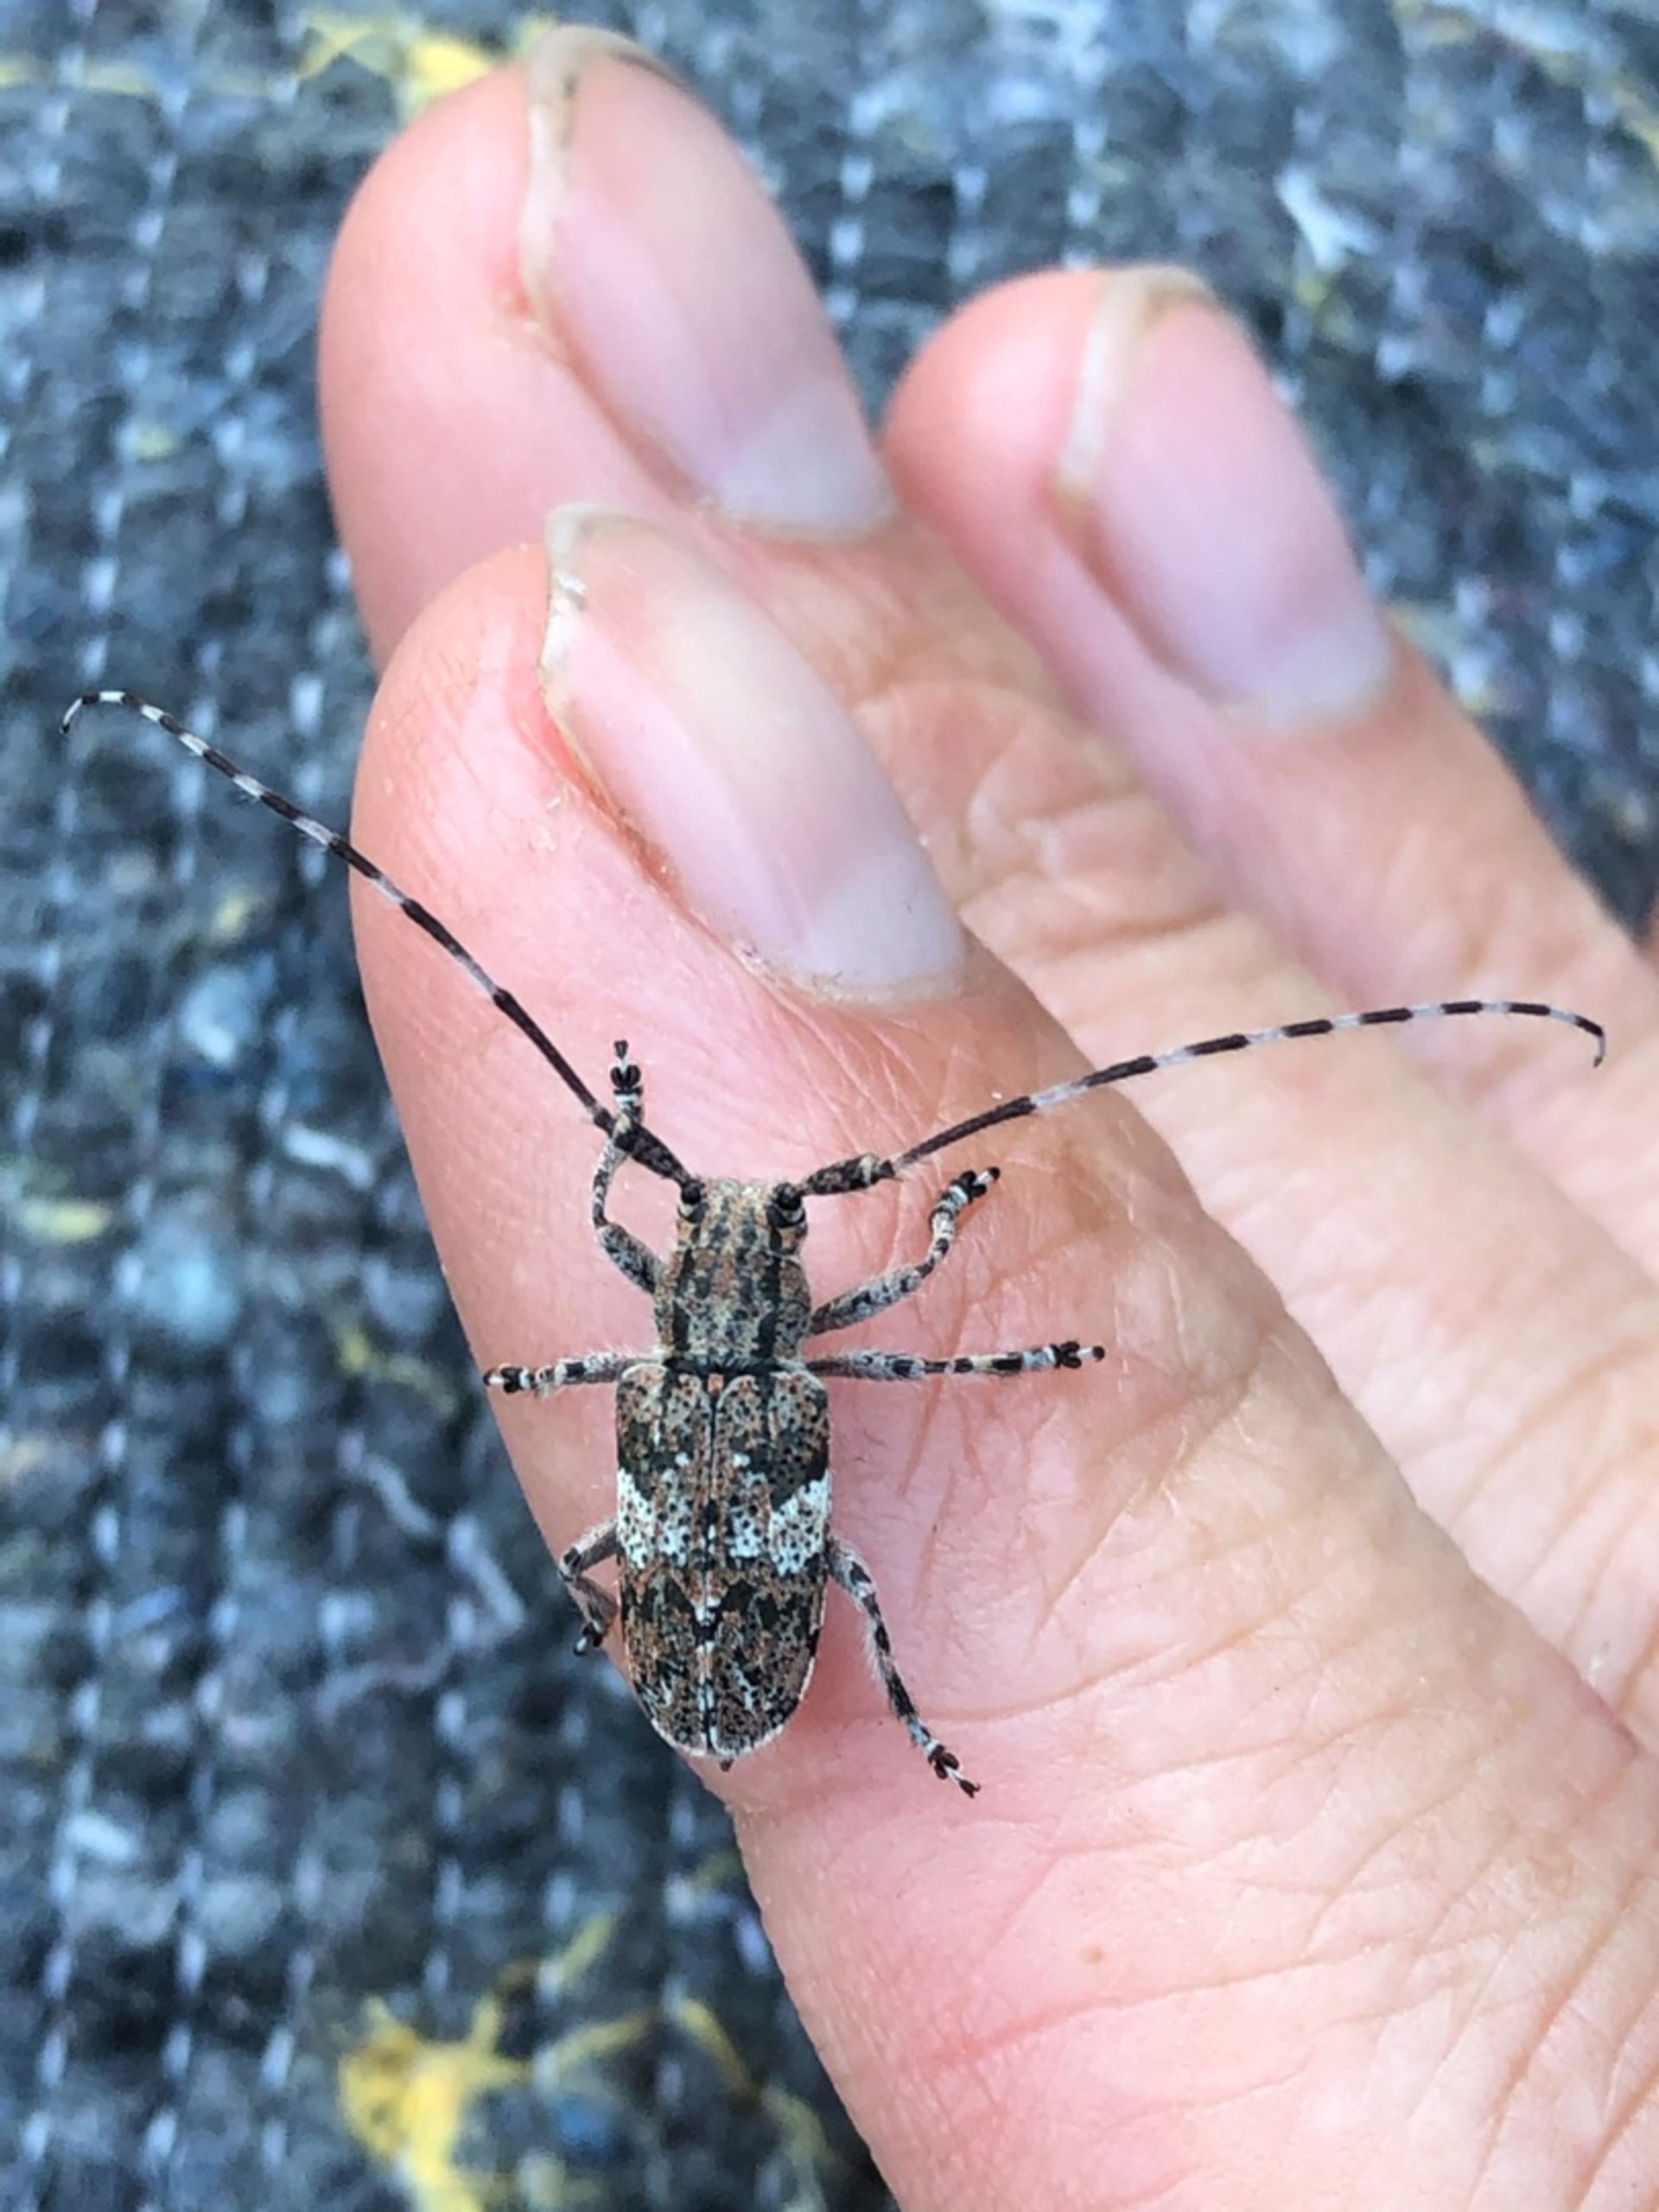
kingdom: Animalia
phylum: Arthropoda
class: Insecta
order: Coleoptera
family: Cerambycidae
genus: Mesosa
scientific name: Mesosa nebulosa
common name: Broget gråbuk
